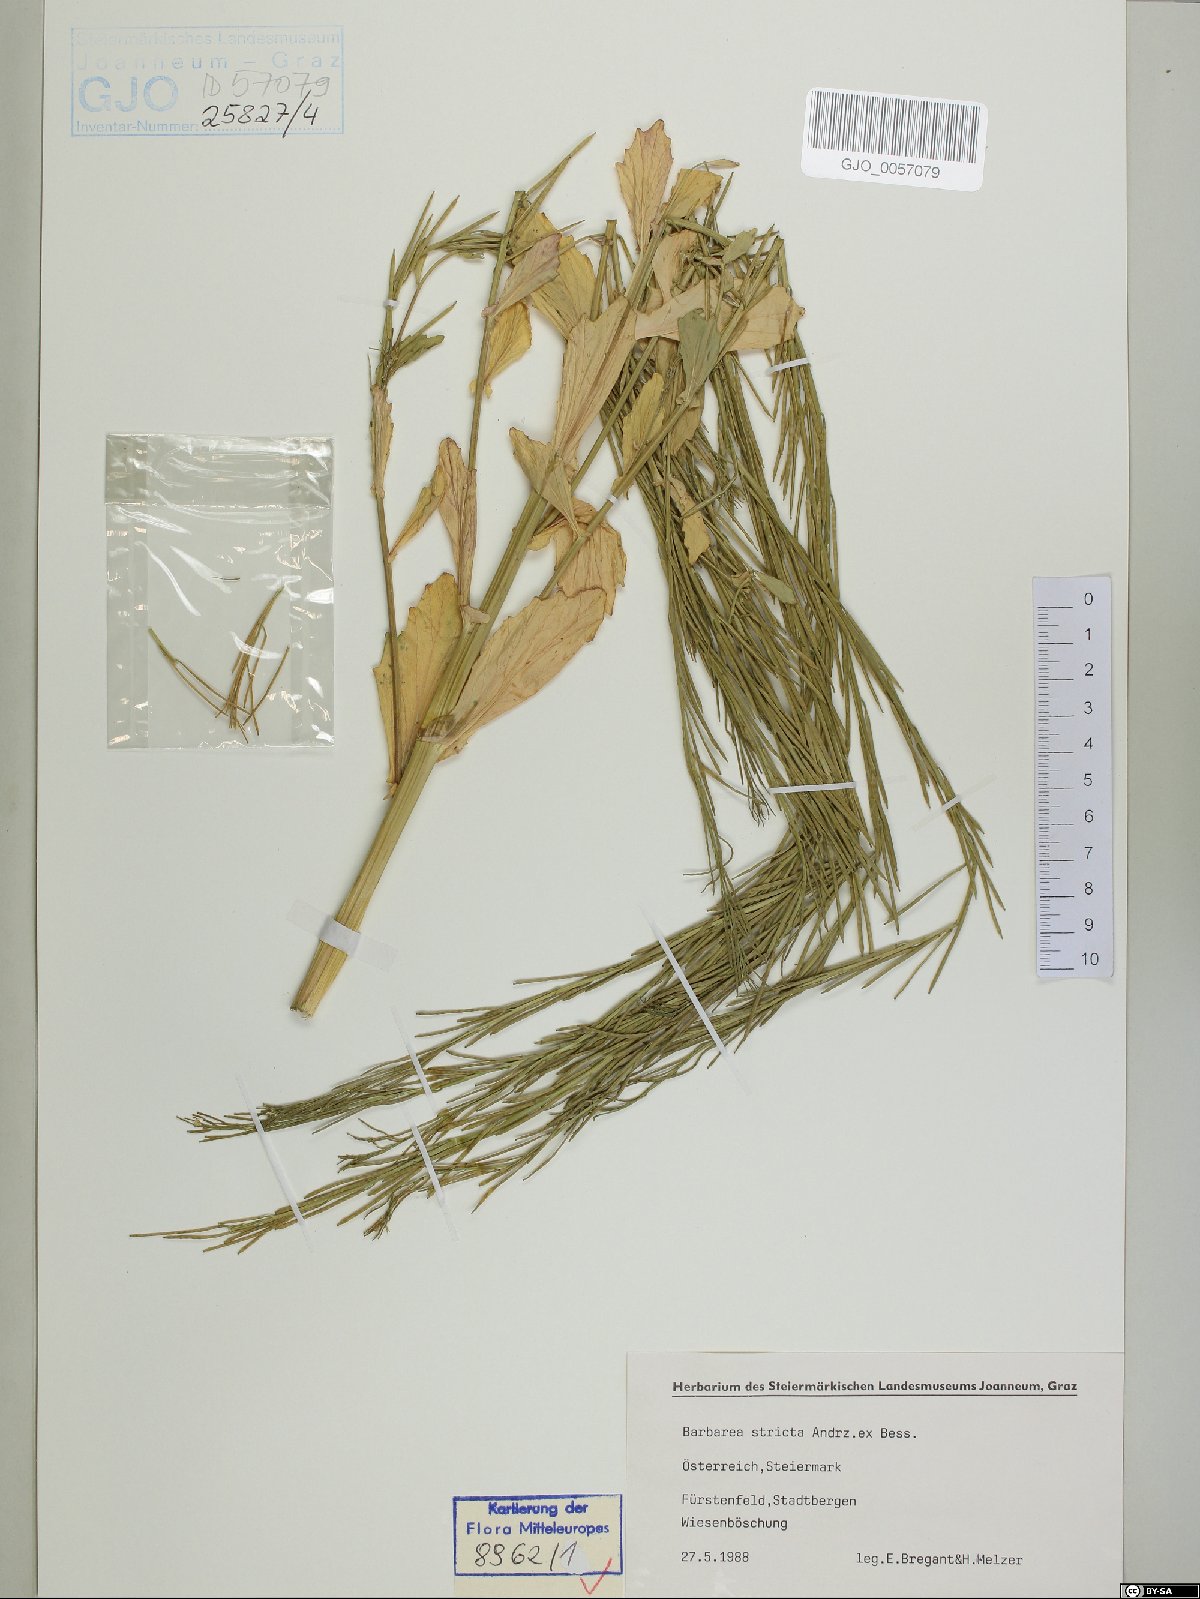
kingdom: Plantae
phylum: Tracheophyta
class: Magnoliopsida
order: Brassicales
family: Brassicaceae
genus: Barbarea
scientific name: Barbarea stricta
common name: Small-flowered winter-cress
